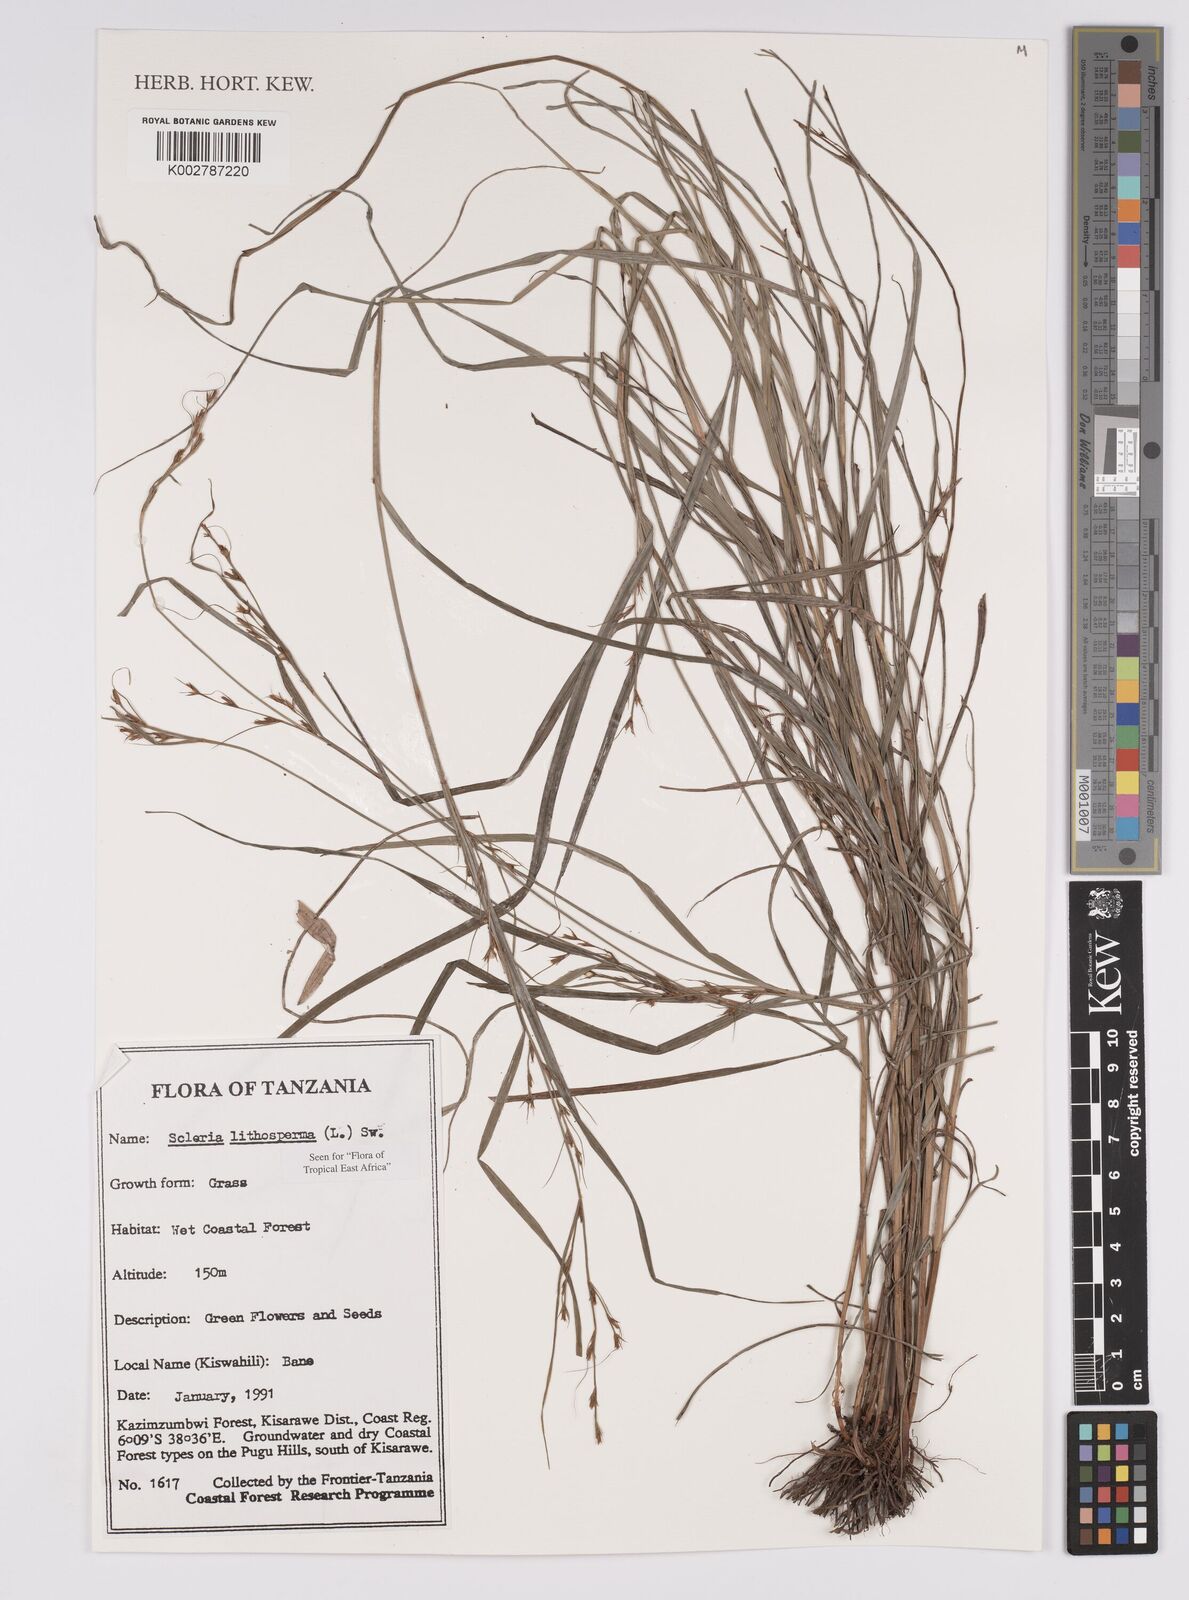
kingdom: Plantae
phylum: Tracheophyta
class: Liliopsida
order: Poales
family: Cyperaceae
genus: Scleria
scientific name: Scleria lithosperma
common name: Florida keys nut-rush
